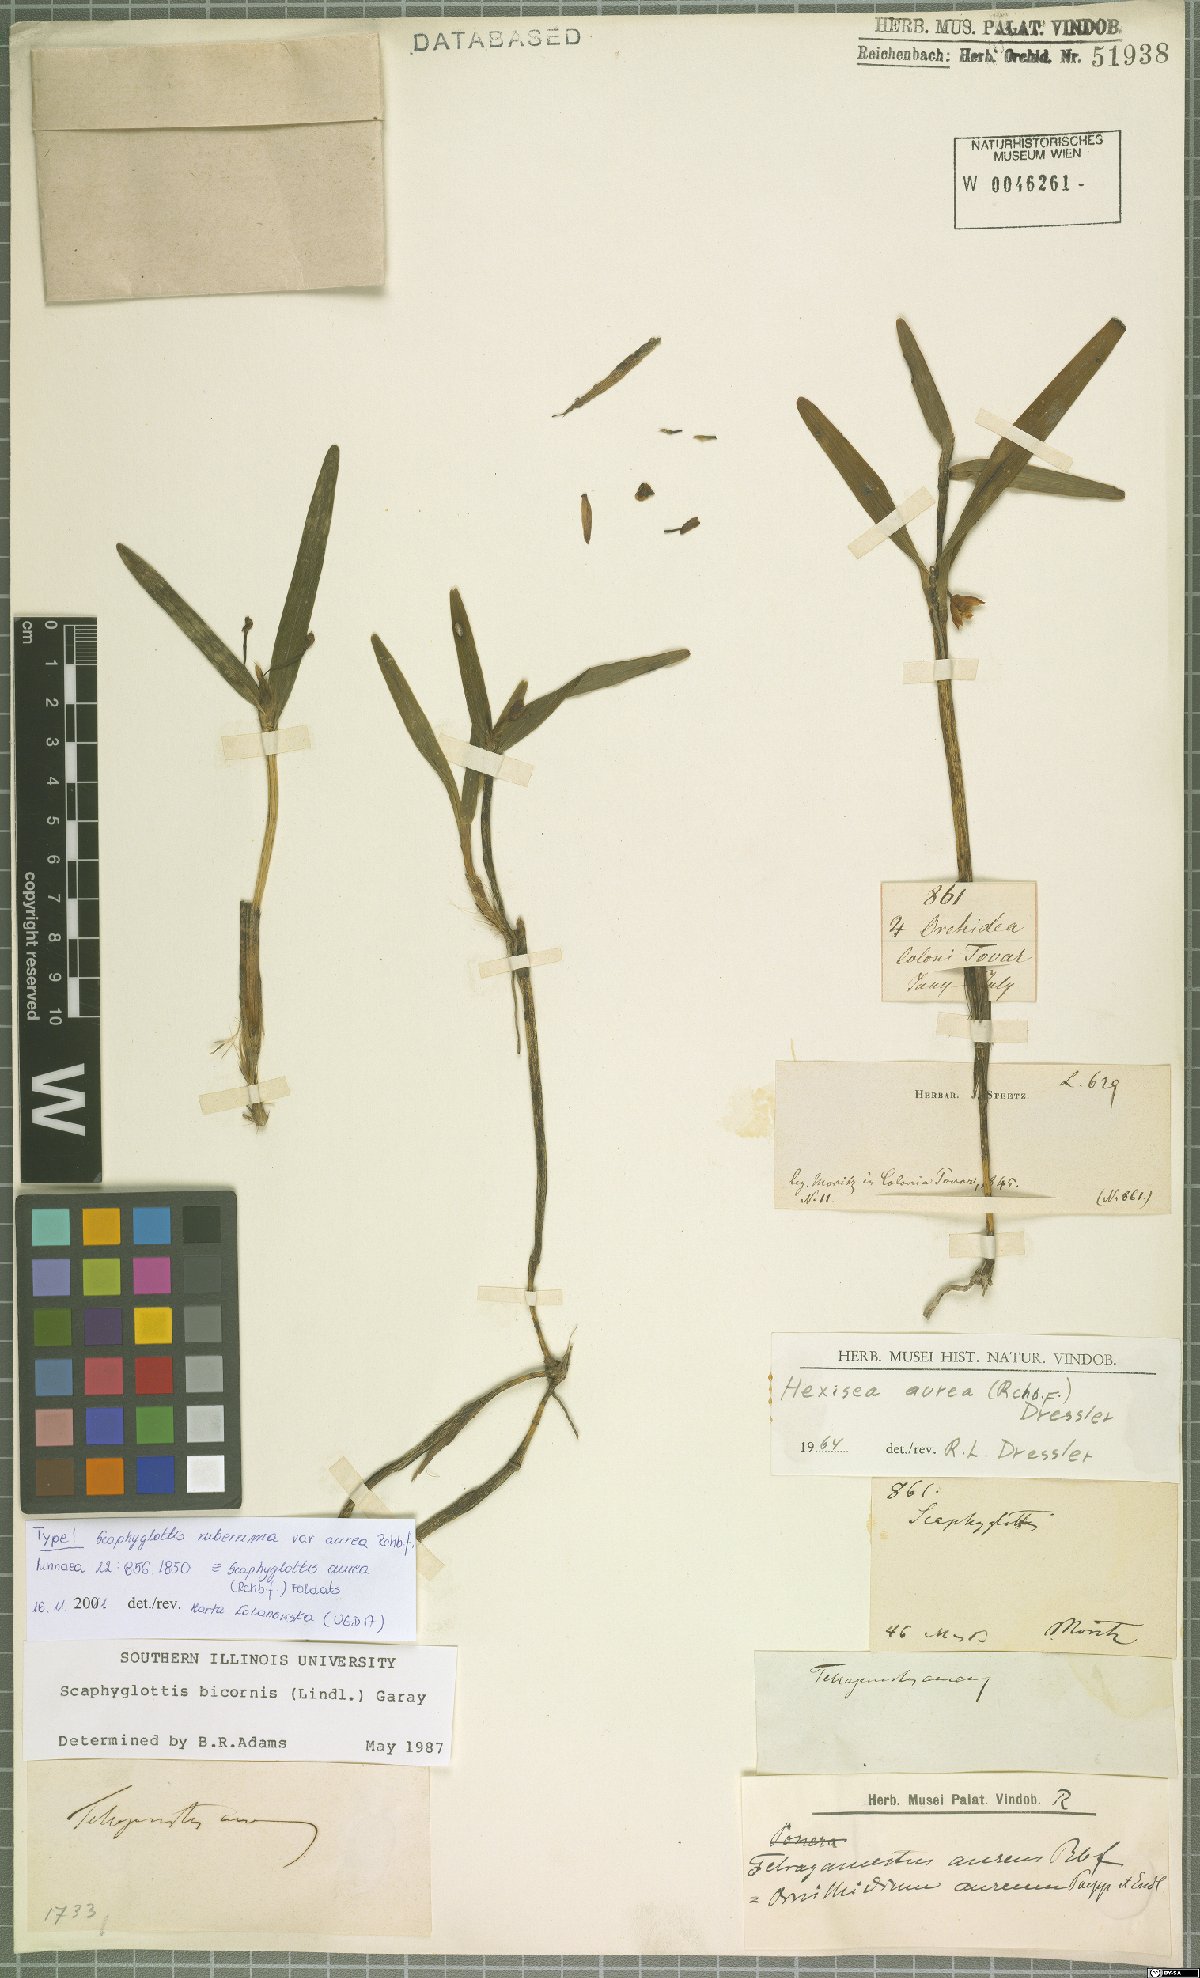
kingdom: Plantae
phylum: Tracheophyta
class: Liliopsida
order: Asparagales
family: Orchidaceae
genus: Scaphyglottis
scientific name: Scaphyglottis aurea
